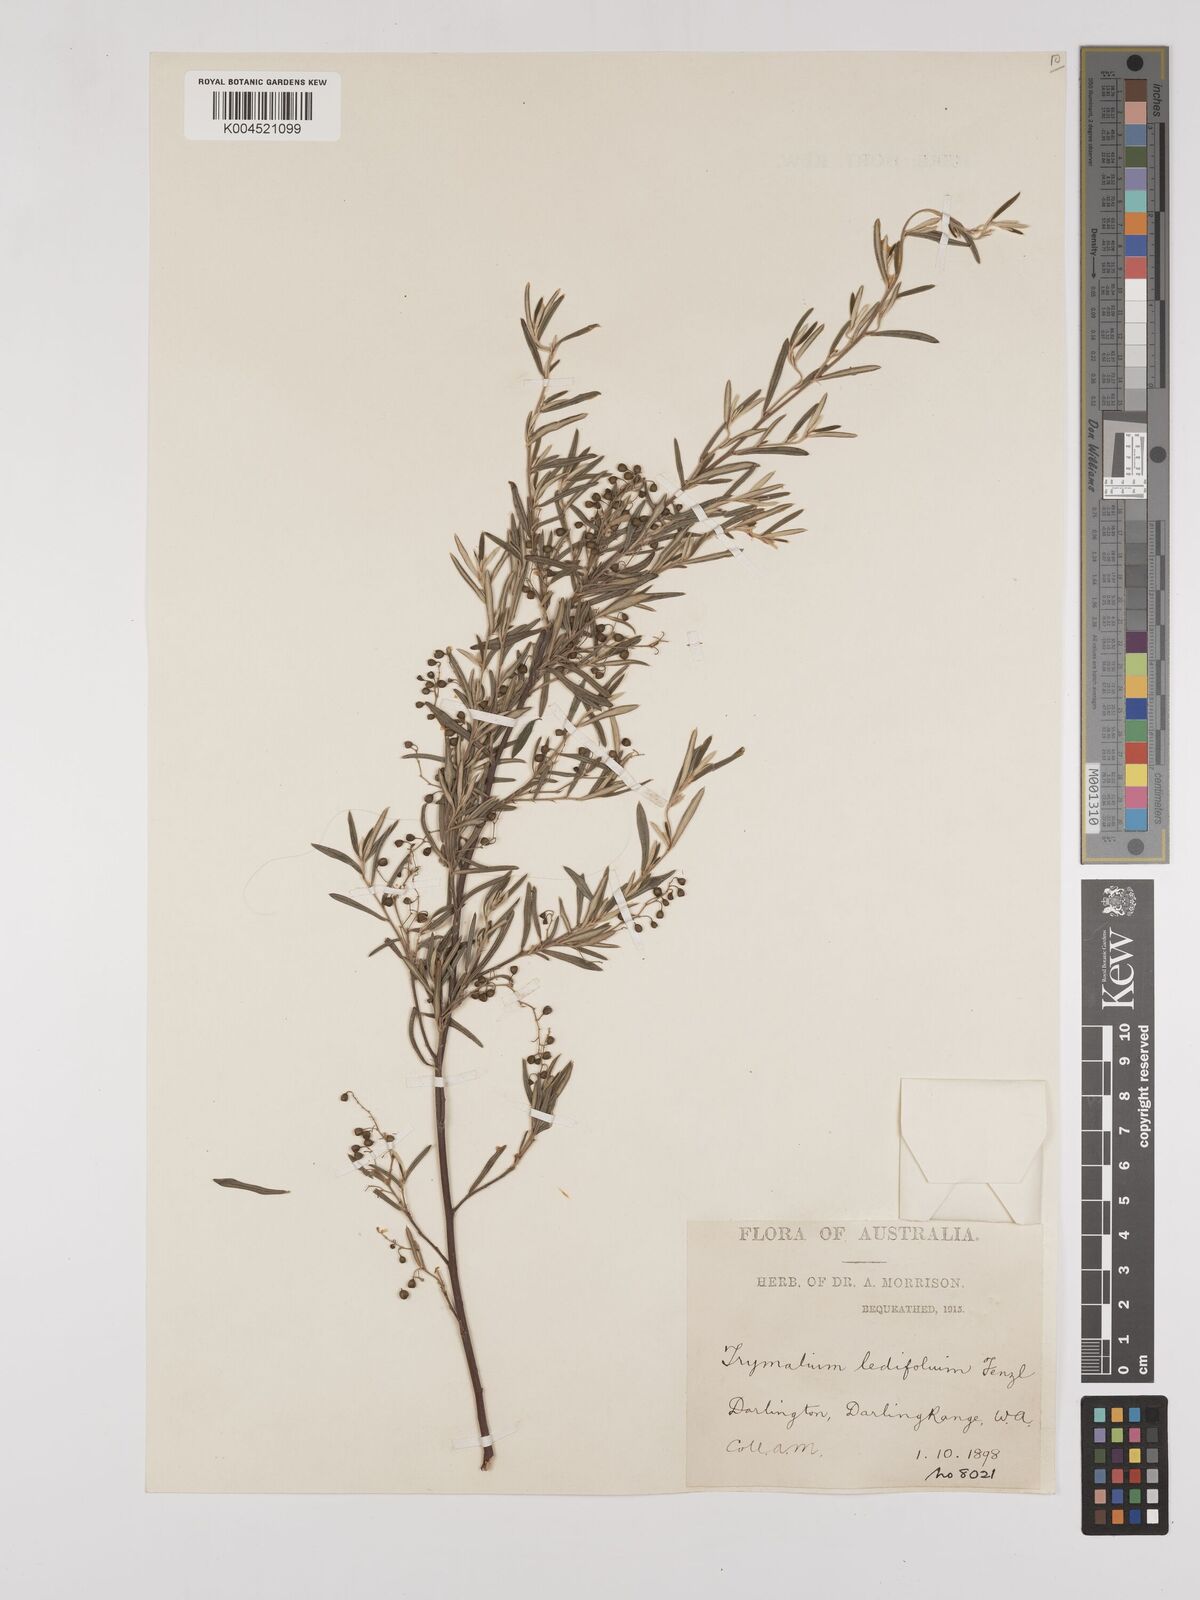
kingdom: Plantae
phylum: Tracheophyta
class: Magnoliopsida
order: Rosales
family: Rhamnaceae
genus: Trymalium
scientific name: Trymalium ledifolium
